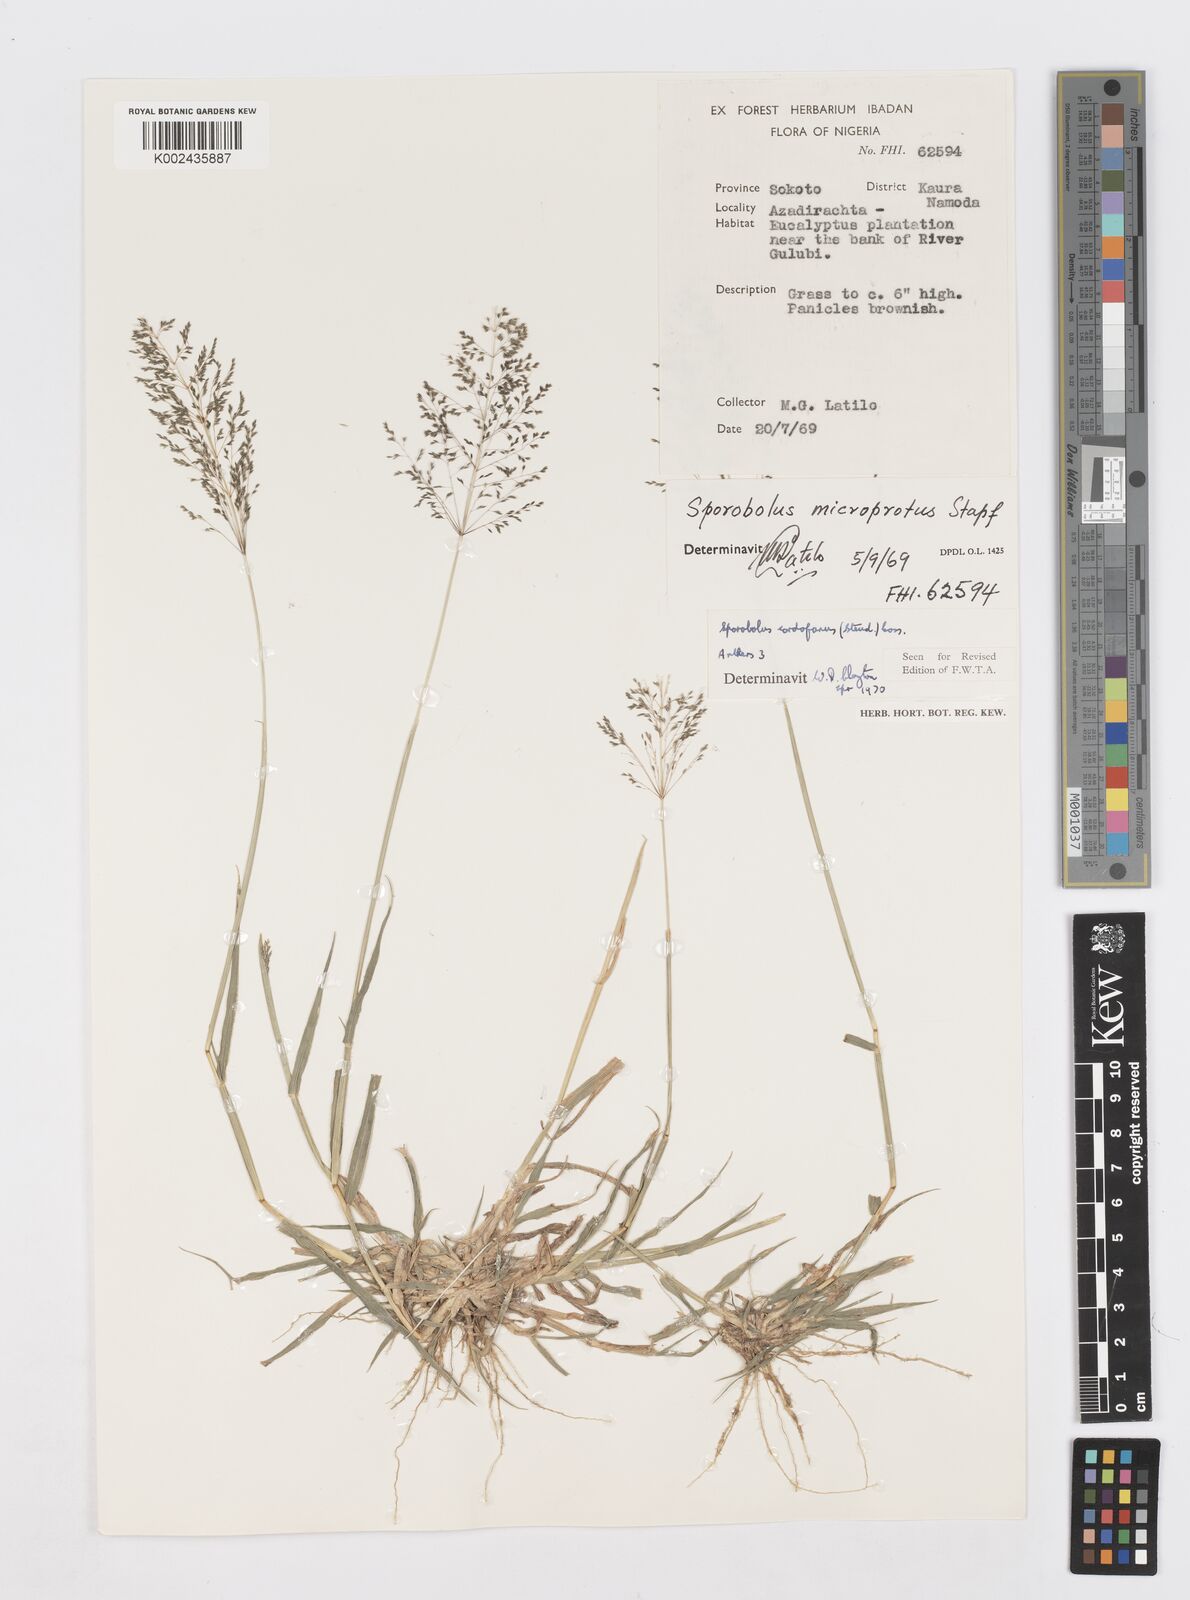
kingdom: Plantae
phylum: Tracheophyta
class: Liliopsida
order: Poales
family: Poaceae
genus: Sporobolus
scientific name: Sporobolus cordofanus
